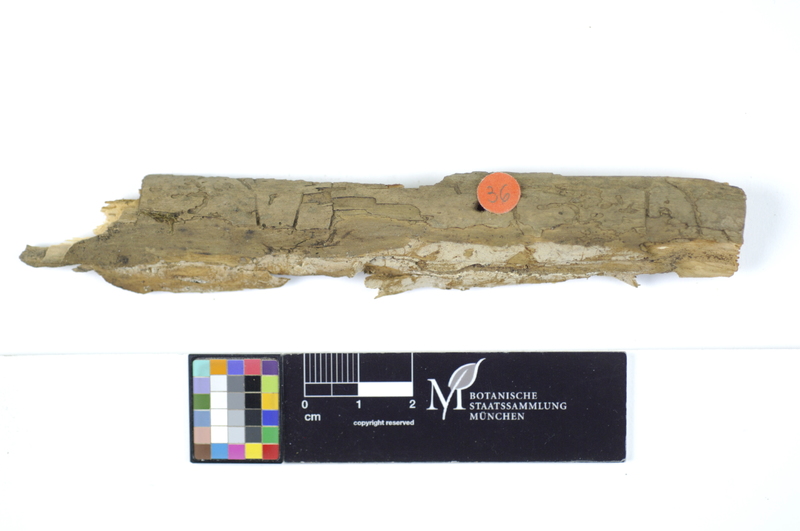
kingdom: Fungi
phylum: Basidiomycota
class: Agaricomycetes
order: Hymenochaetales
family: Rickenellaceae
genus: Peniophorella
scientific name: Peniophorella pallida
